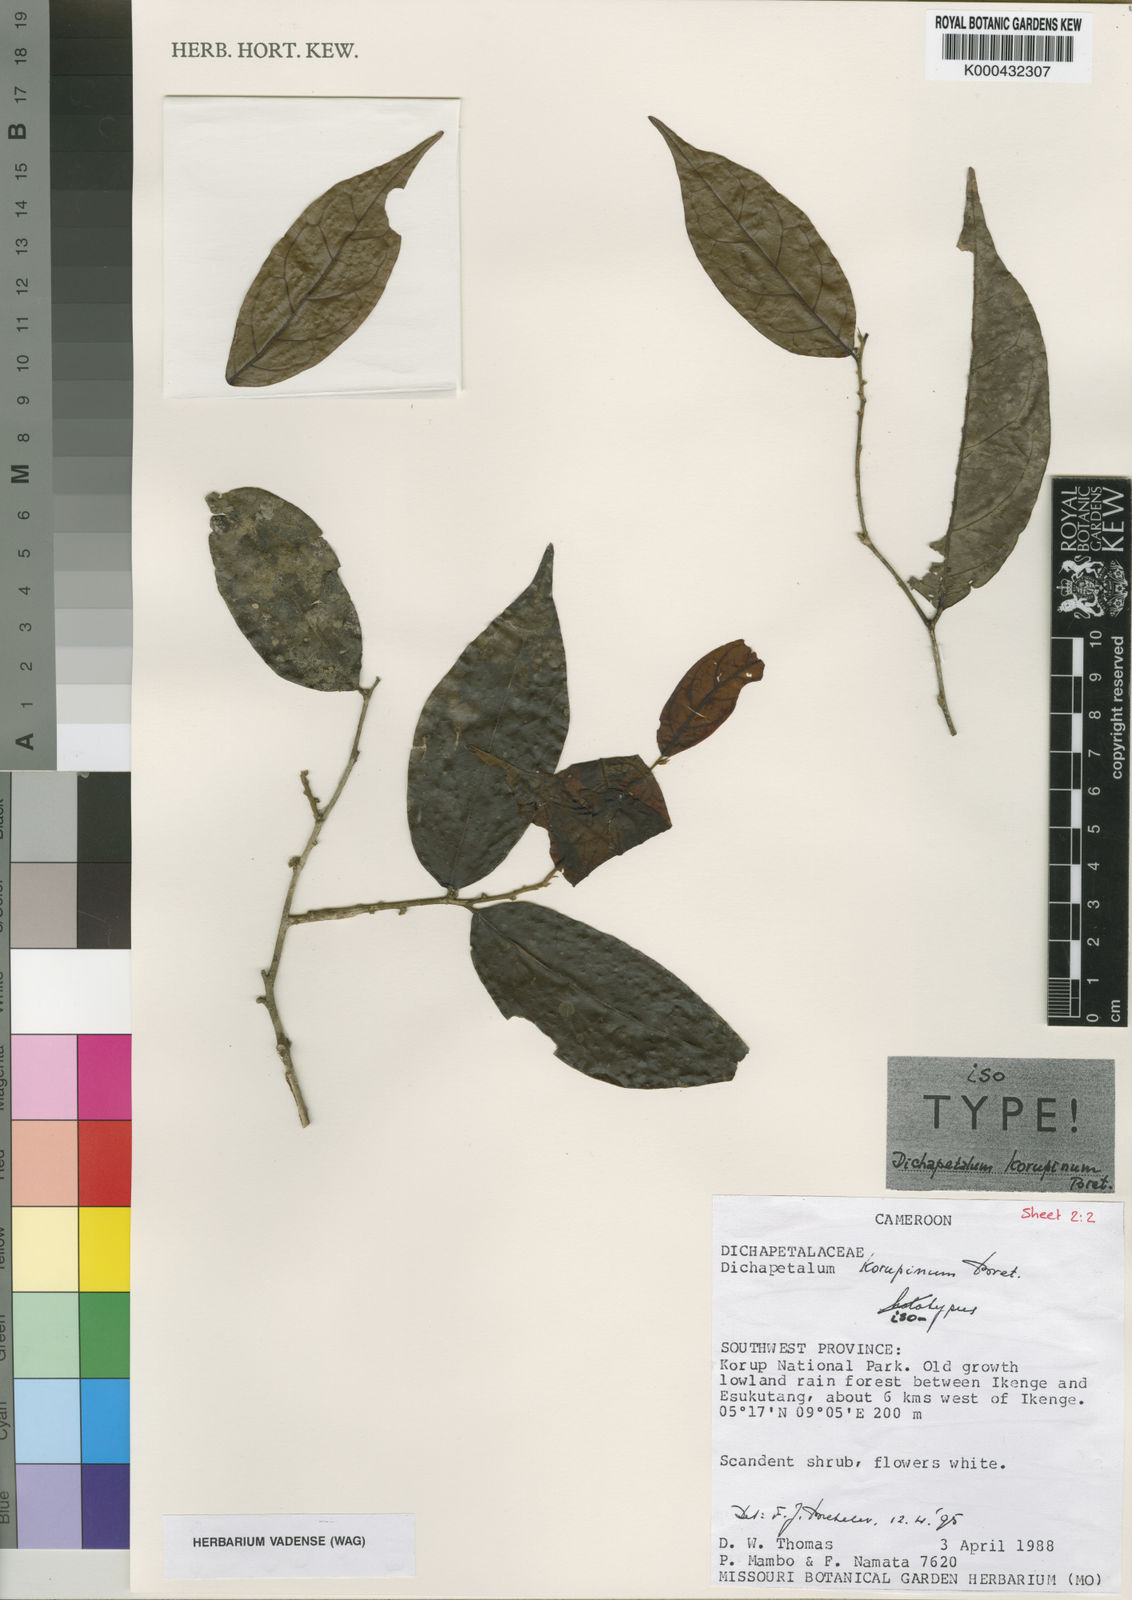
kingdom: Plantae
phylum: Tracheophyta
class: Magnoliopsida
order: Malpighiales
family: Dichapetalaceae
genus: Dichapetalum
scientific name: Dichapetalum korupinum
